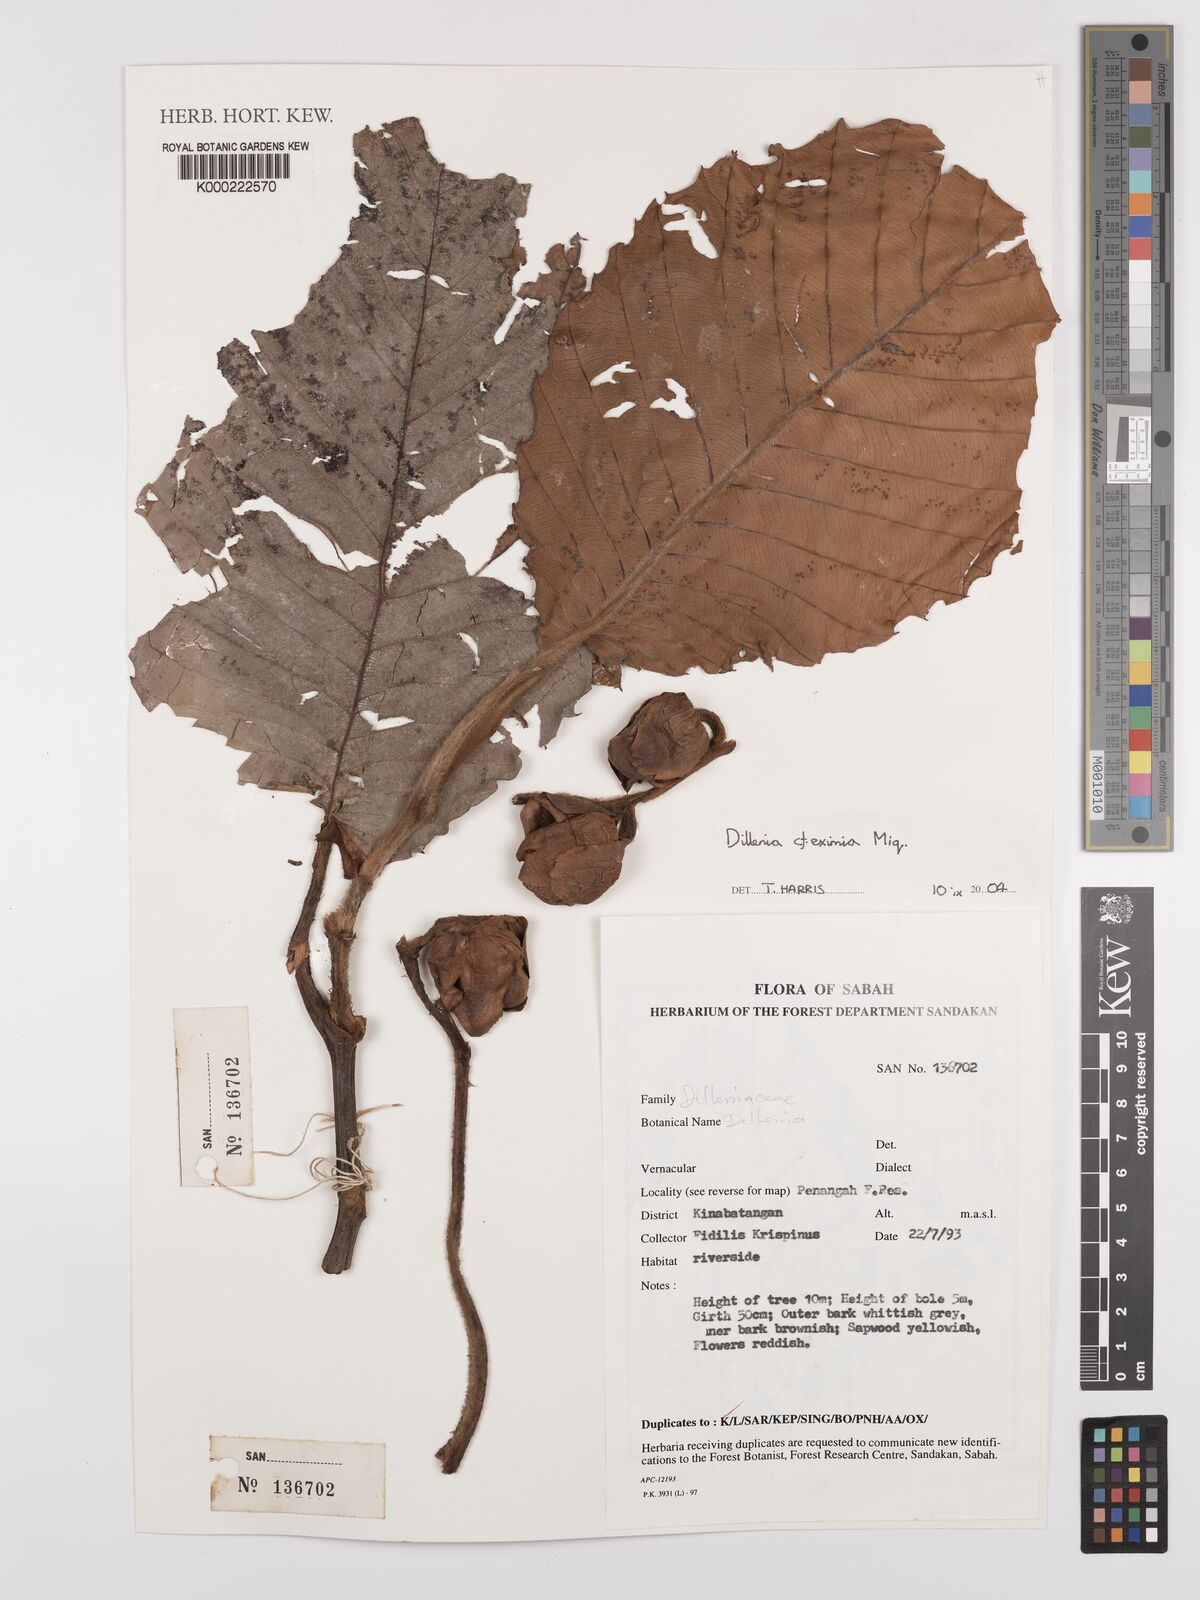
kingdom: Plantae
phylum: Tracheophyta
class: Magnoliopsida
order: Dilleniales
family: Dilleniaceae
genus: Dillenia
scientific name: Dillenia grandifolia
